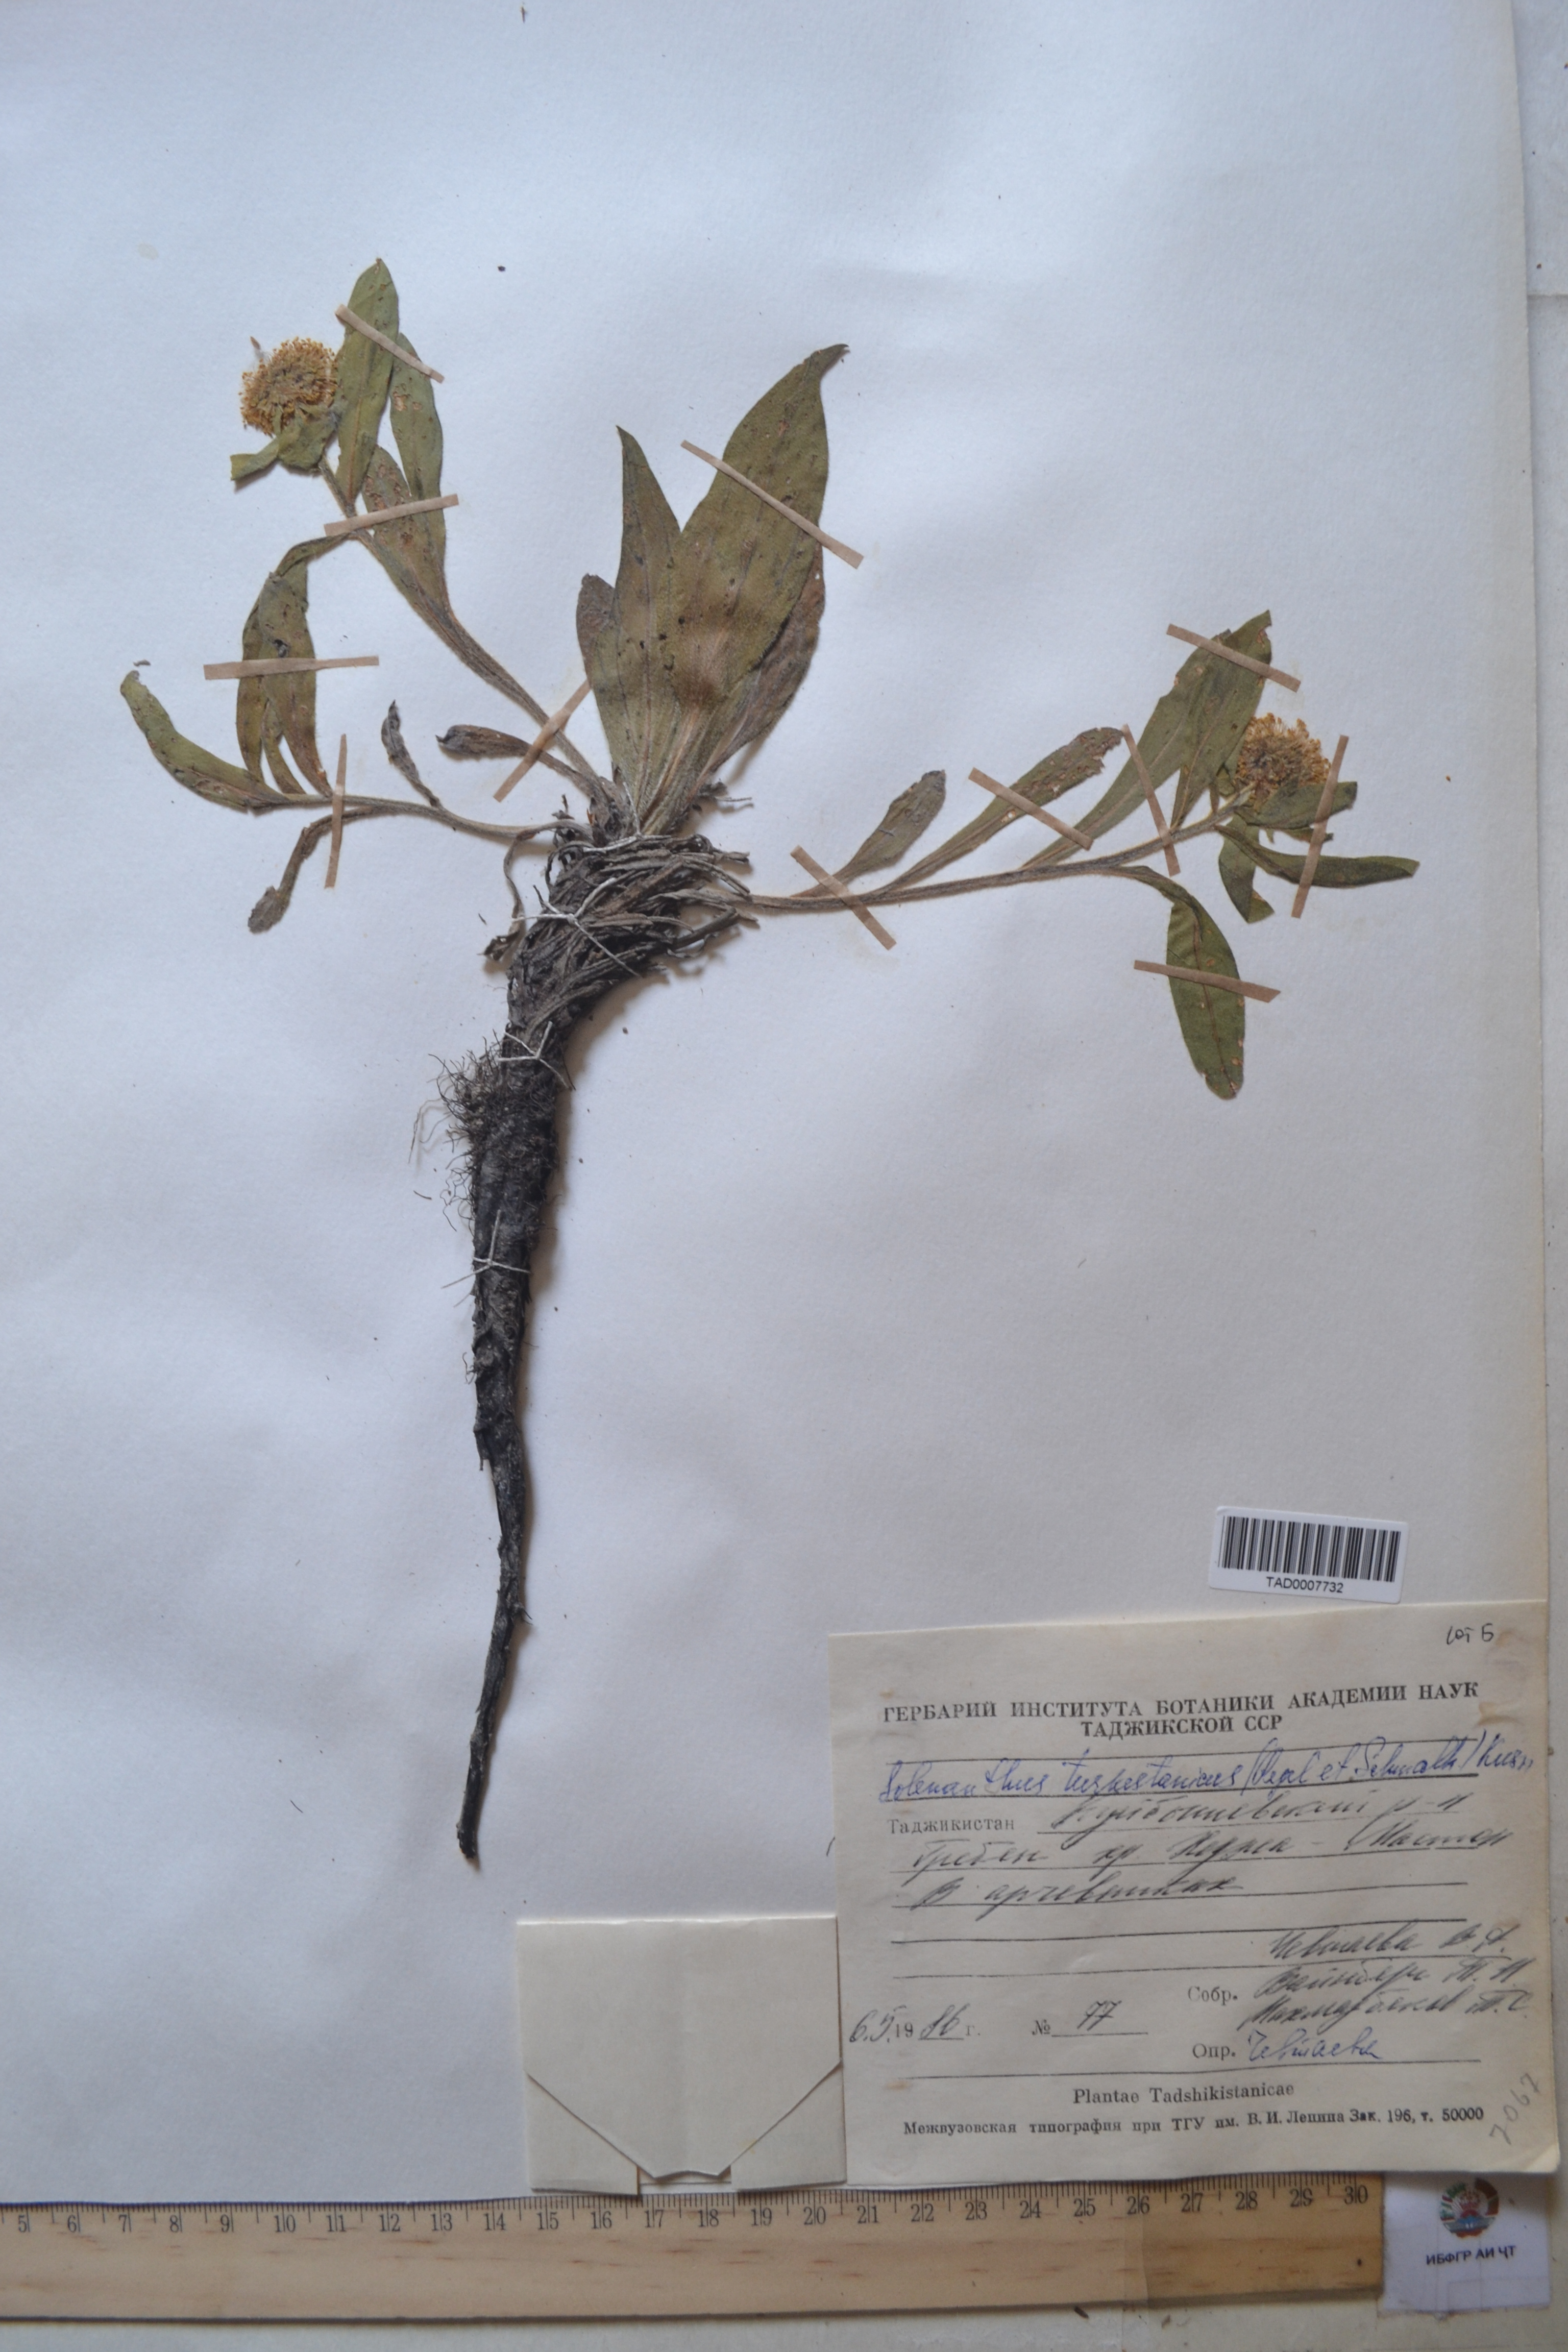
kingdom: Plantae
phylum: Tracheophyta
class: Magnoliopsida
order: Boraginales
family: Boraginaceae
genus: Solenanthus
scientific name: Solenanthus turkestanicus
